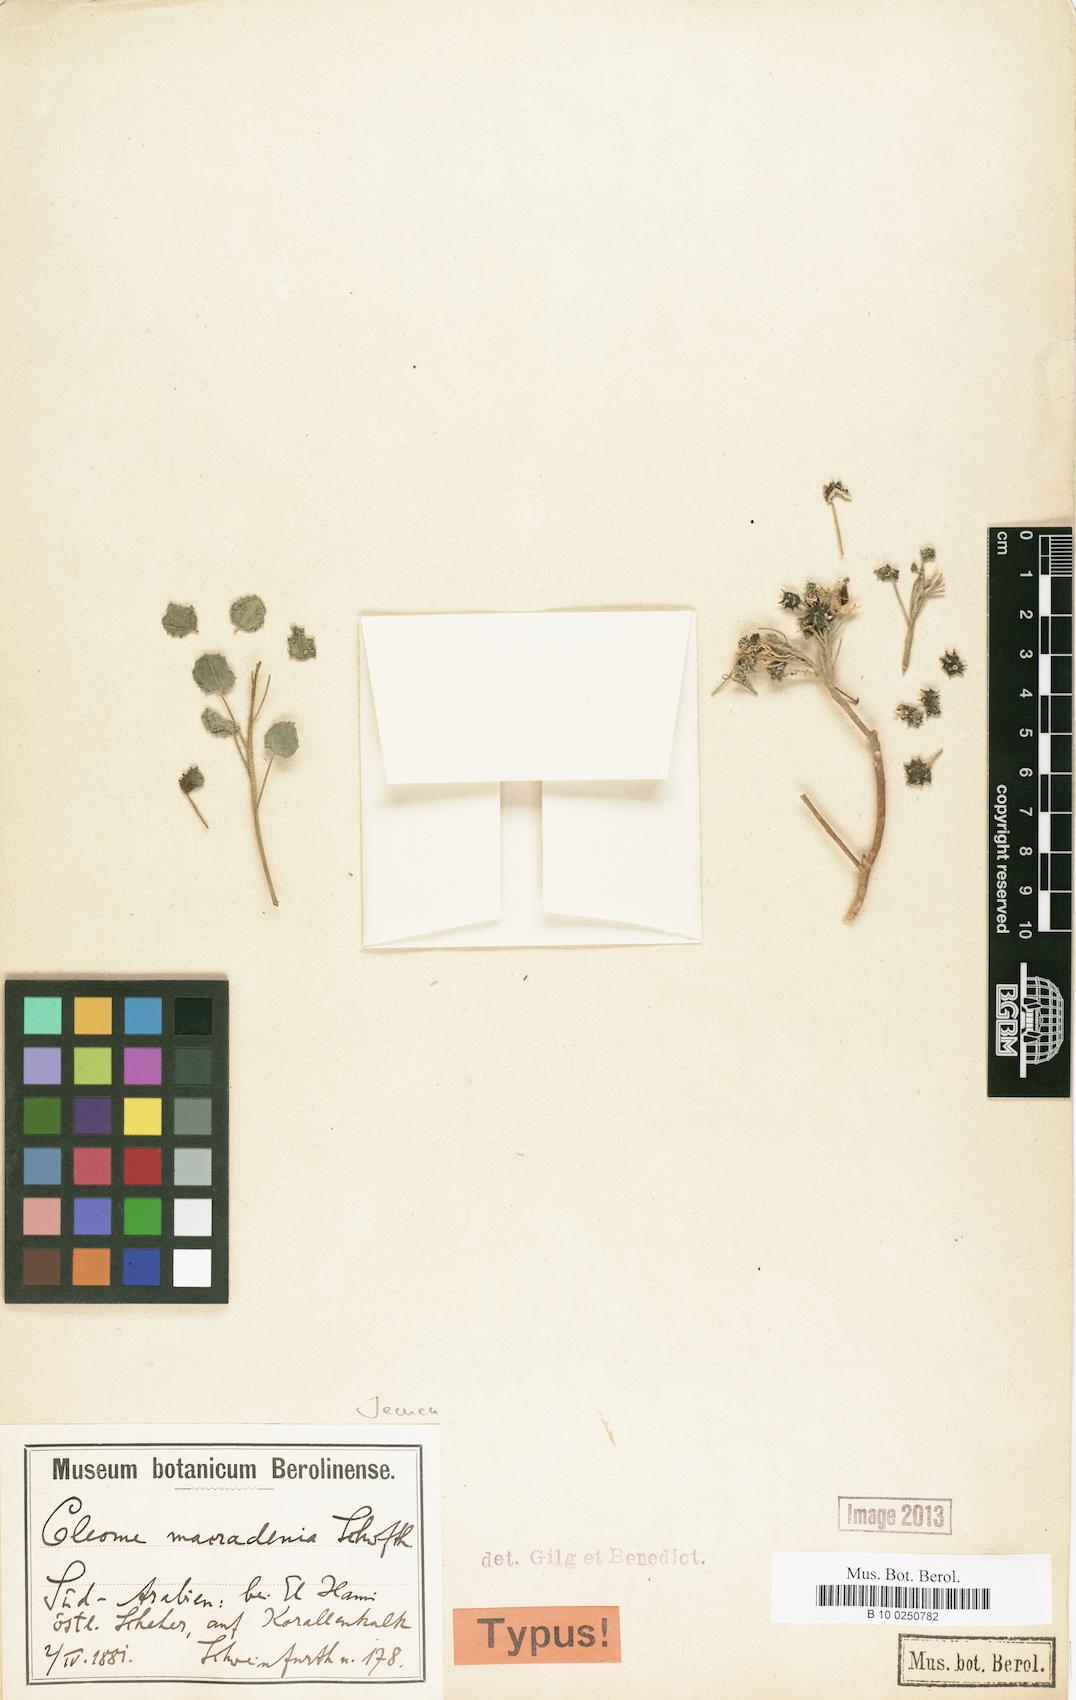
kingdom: Plantae
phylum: Tracheophyta
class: Magnoliopsida
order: Brassicales
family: Cleomaceae
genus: Rorida
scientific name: Rorida macradenia
